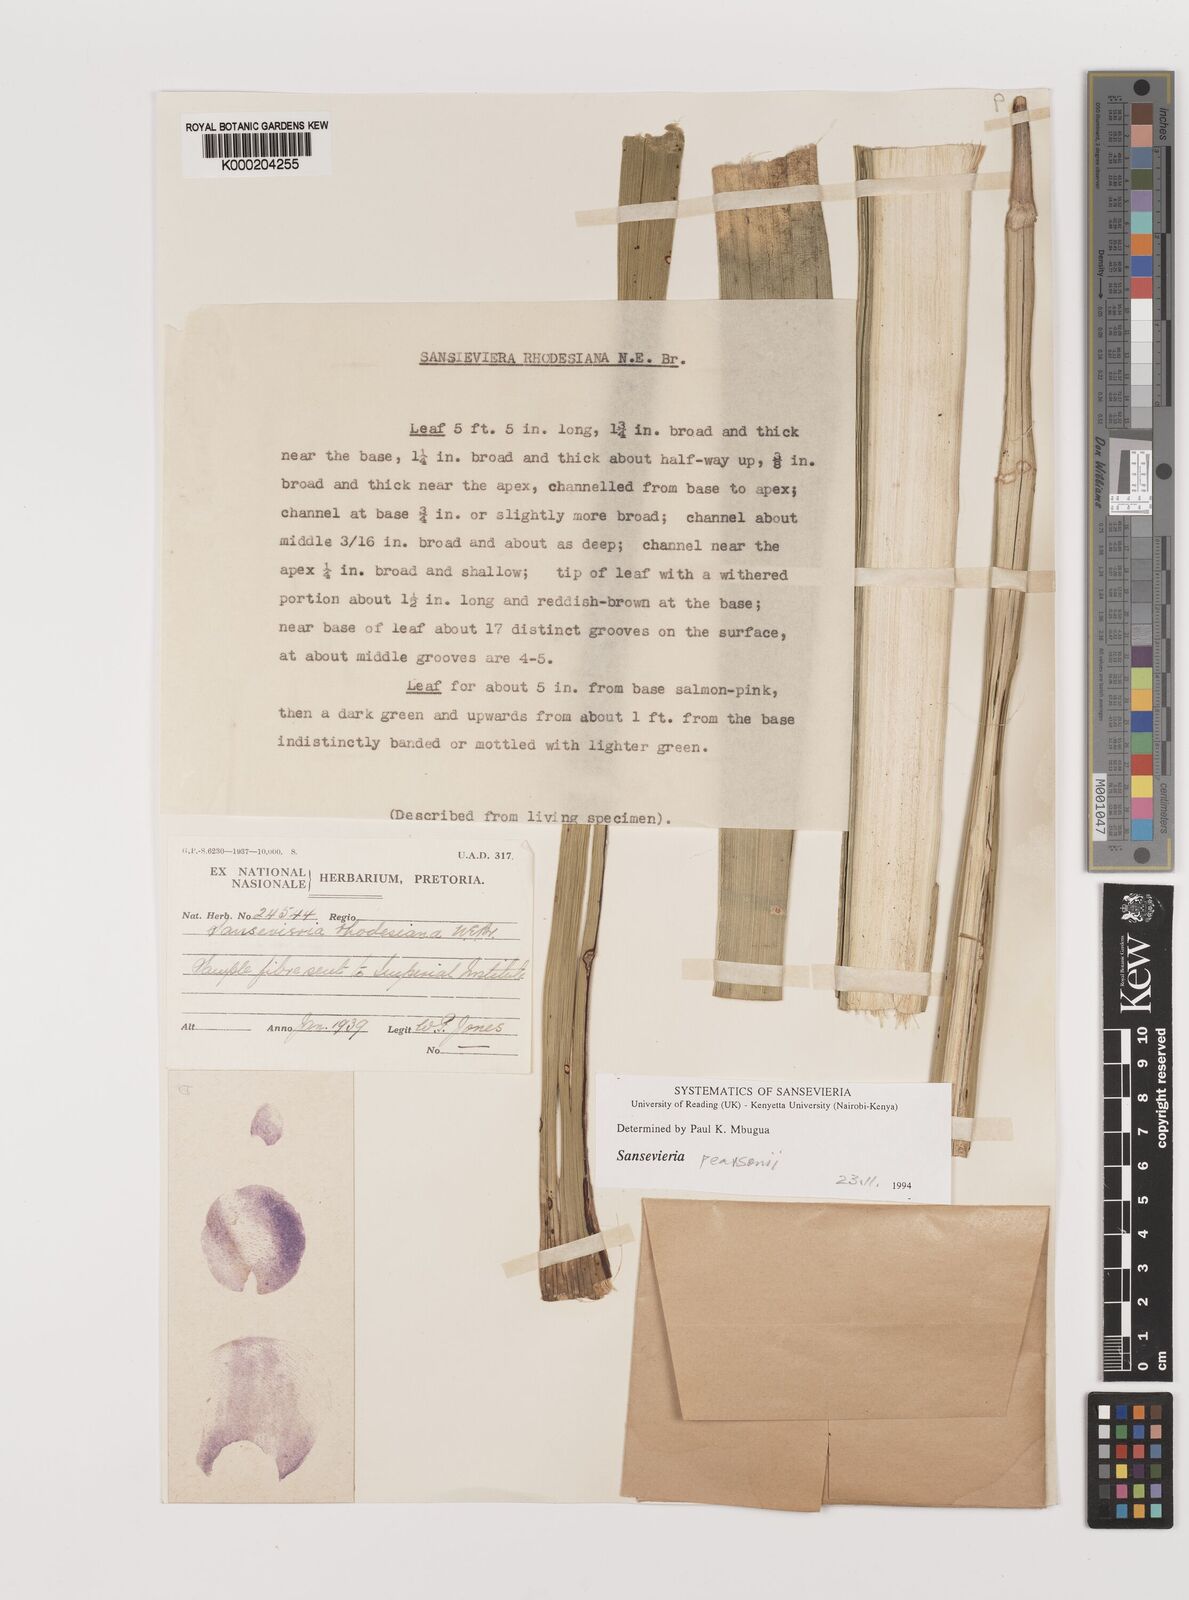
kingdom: Plantae
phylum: Tracheophyta
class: Liliopsida
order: Asparagales
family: Asparagaceae
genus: Dracaena
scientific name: Dracaena pearsonii
